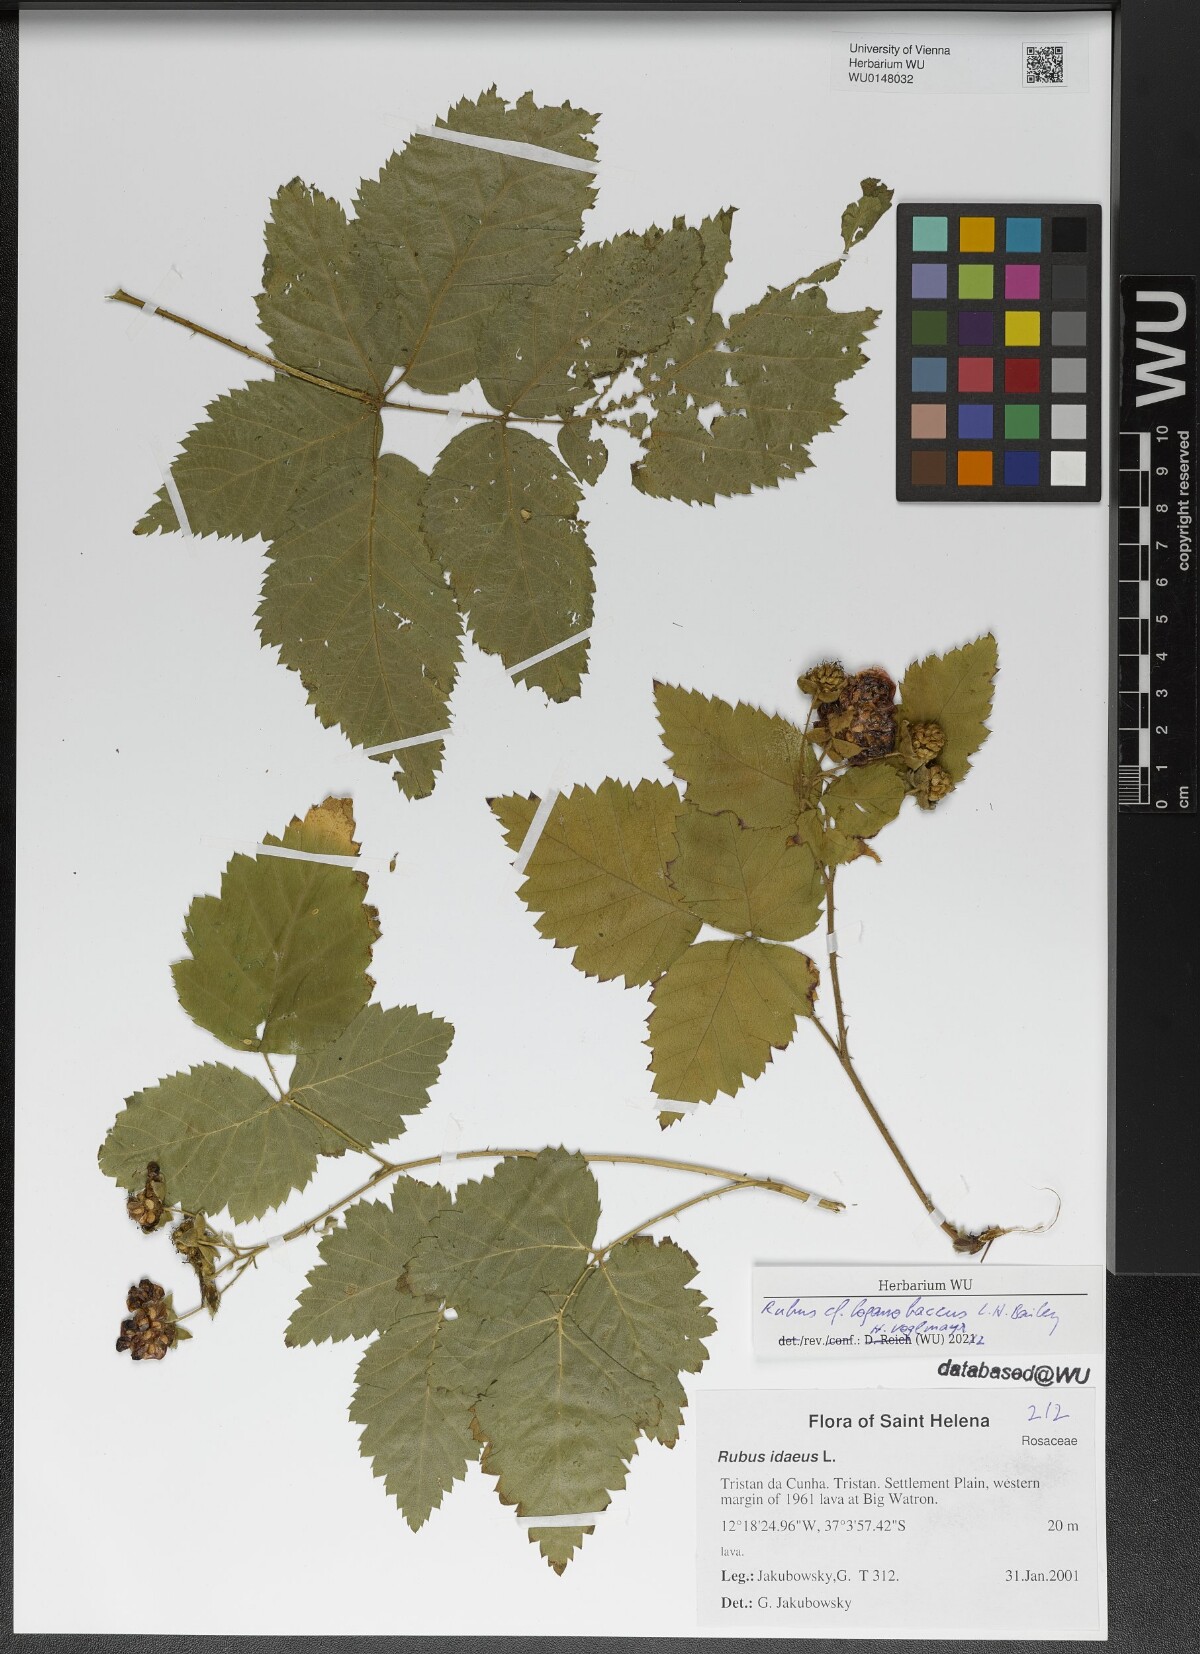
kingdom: Plantae
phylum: Tracheophyta
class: Magnoliopsida
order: Rosales
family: Rosaceae
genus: Rubus
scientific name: Rubus loganobaccus
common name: Loganberry
